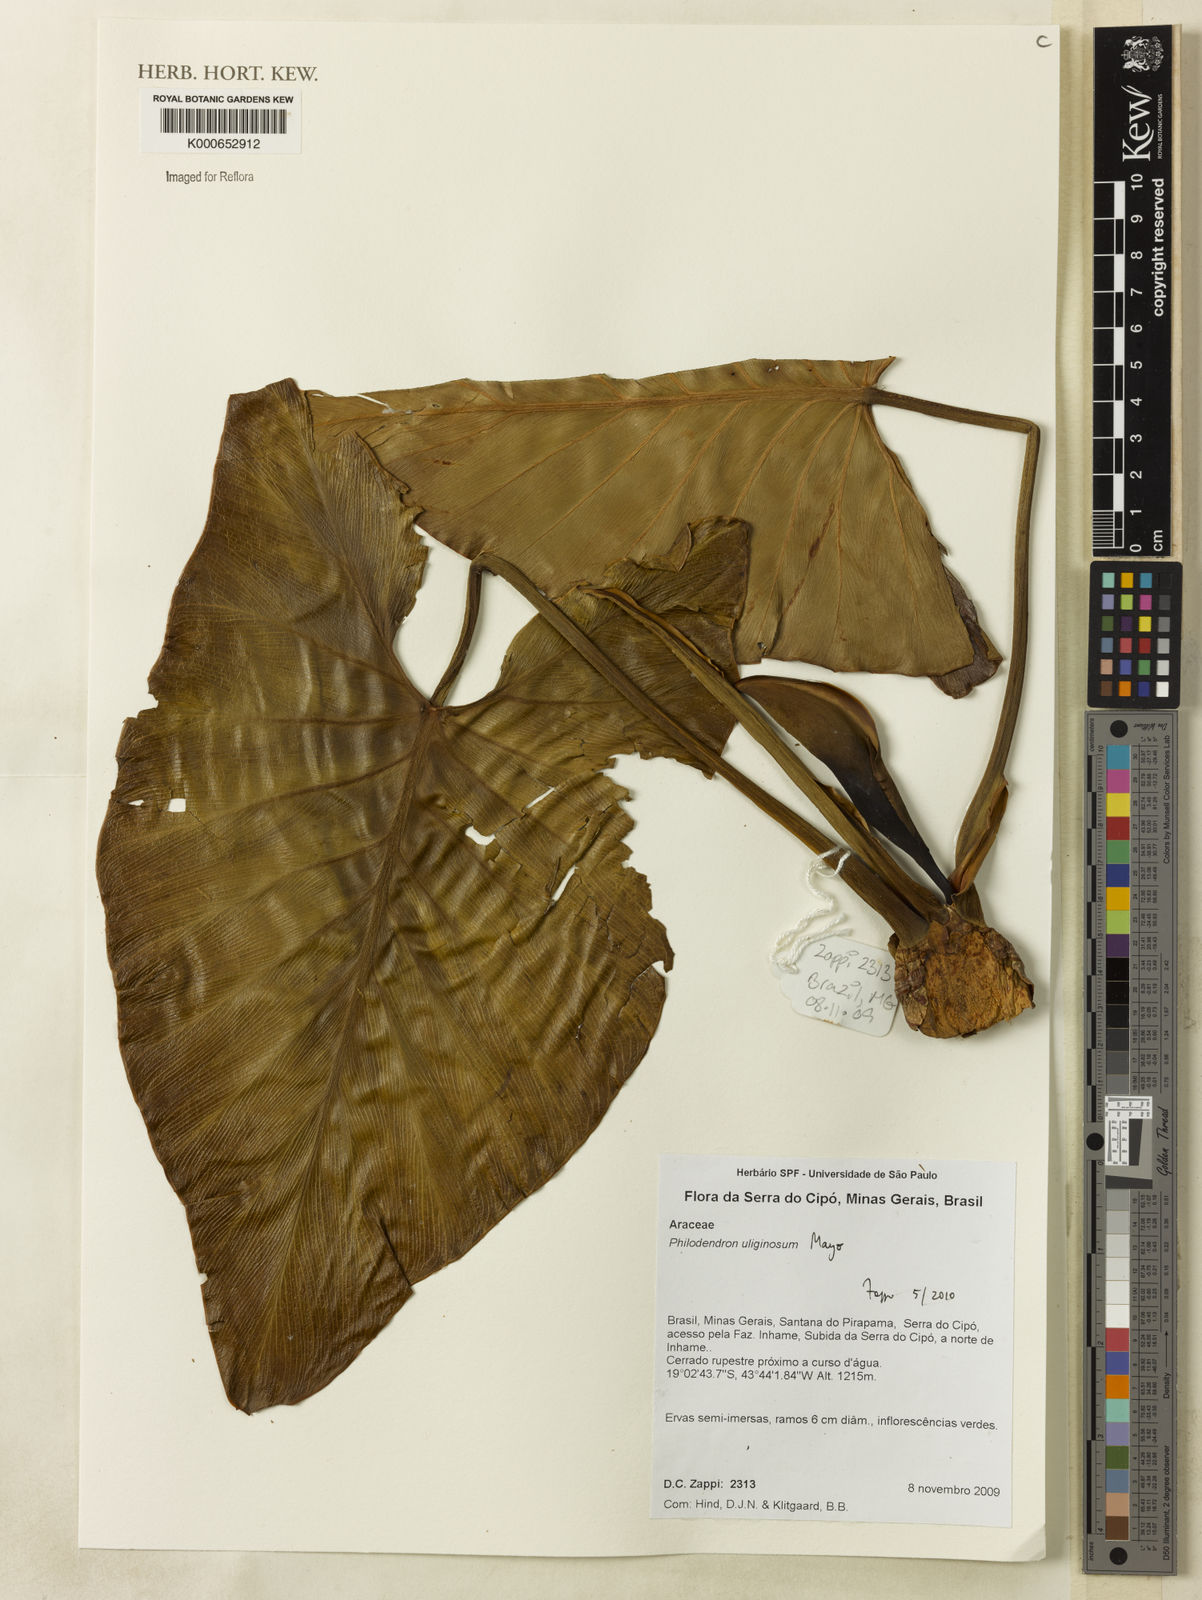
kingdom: Plantae
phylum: Tracheophyta
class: Liliopsida
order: Alismatales
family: Araceae
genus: Thaumatophyllum
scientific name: Thaumatophyllum uliginosum
